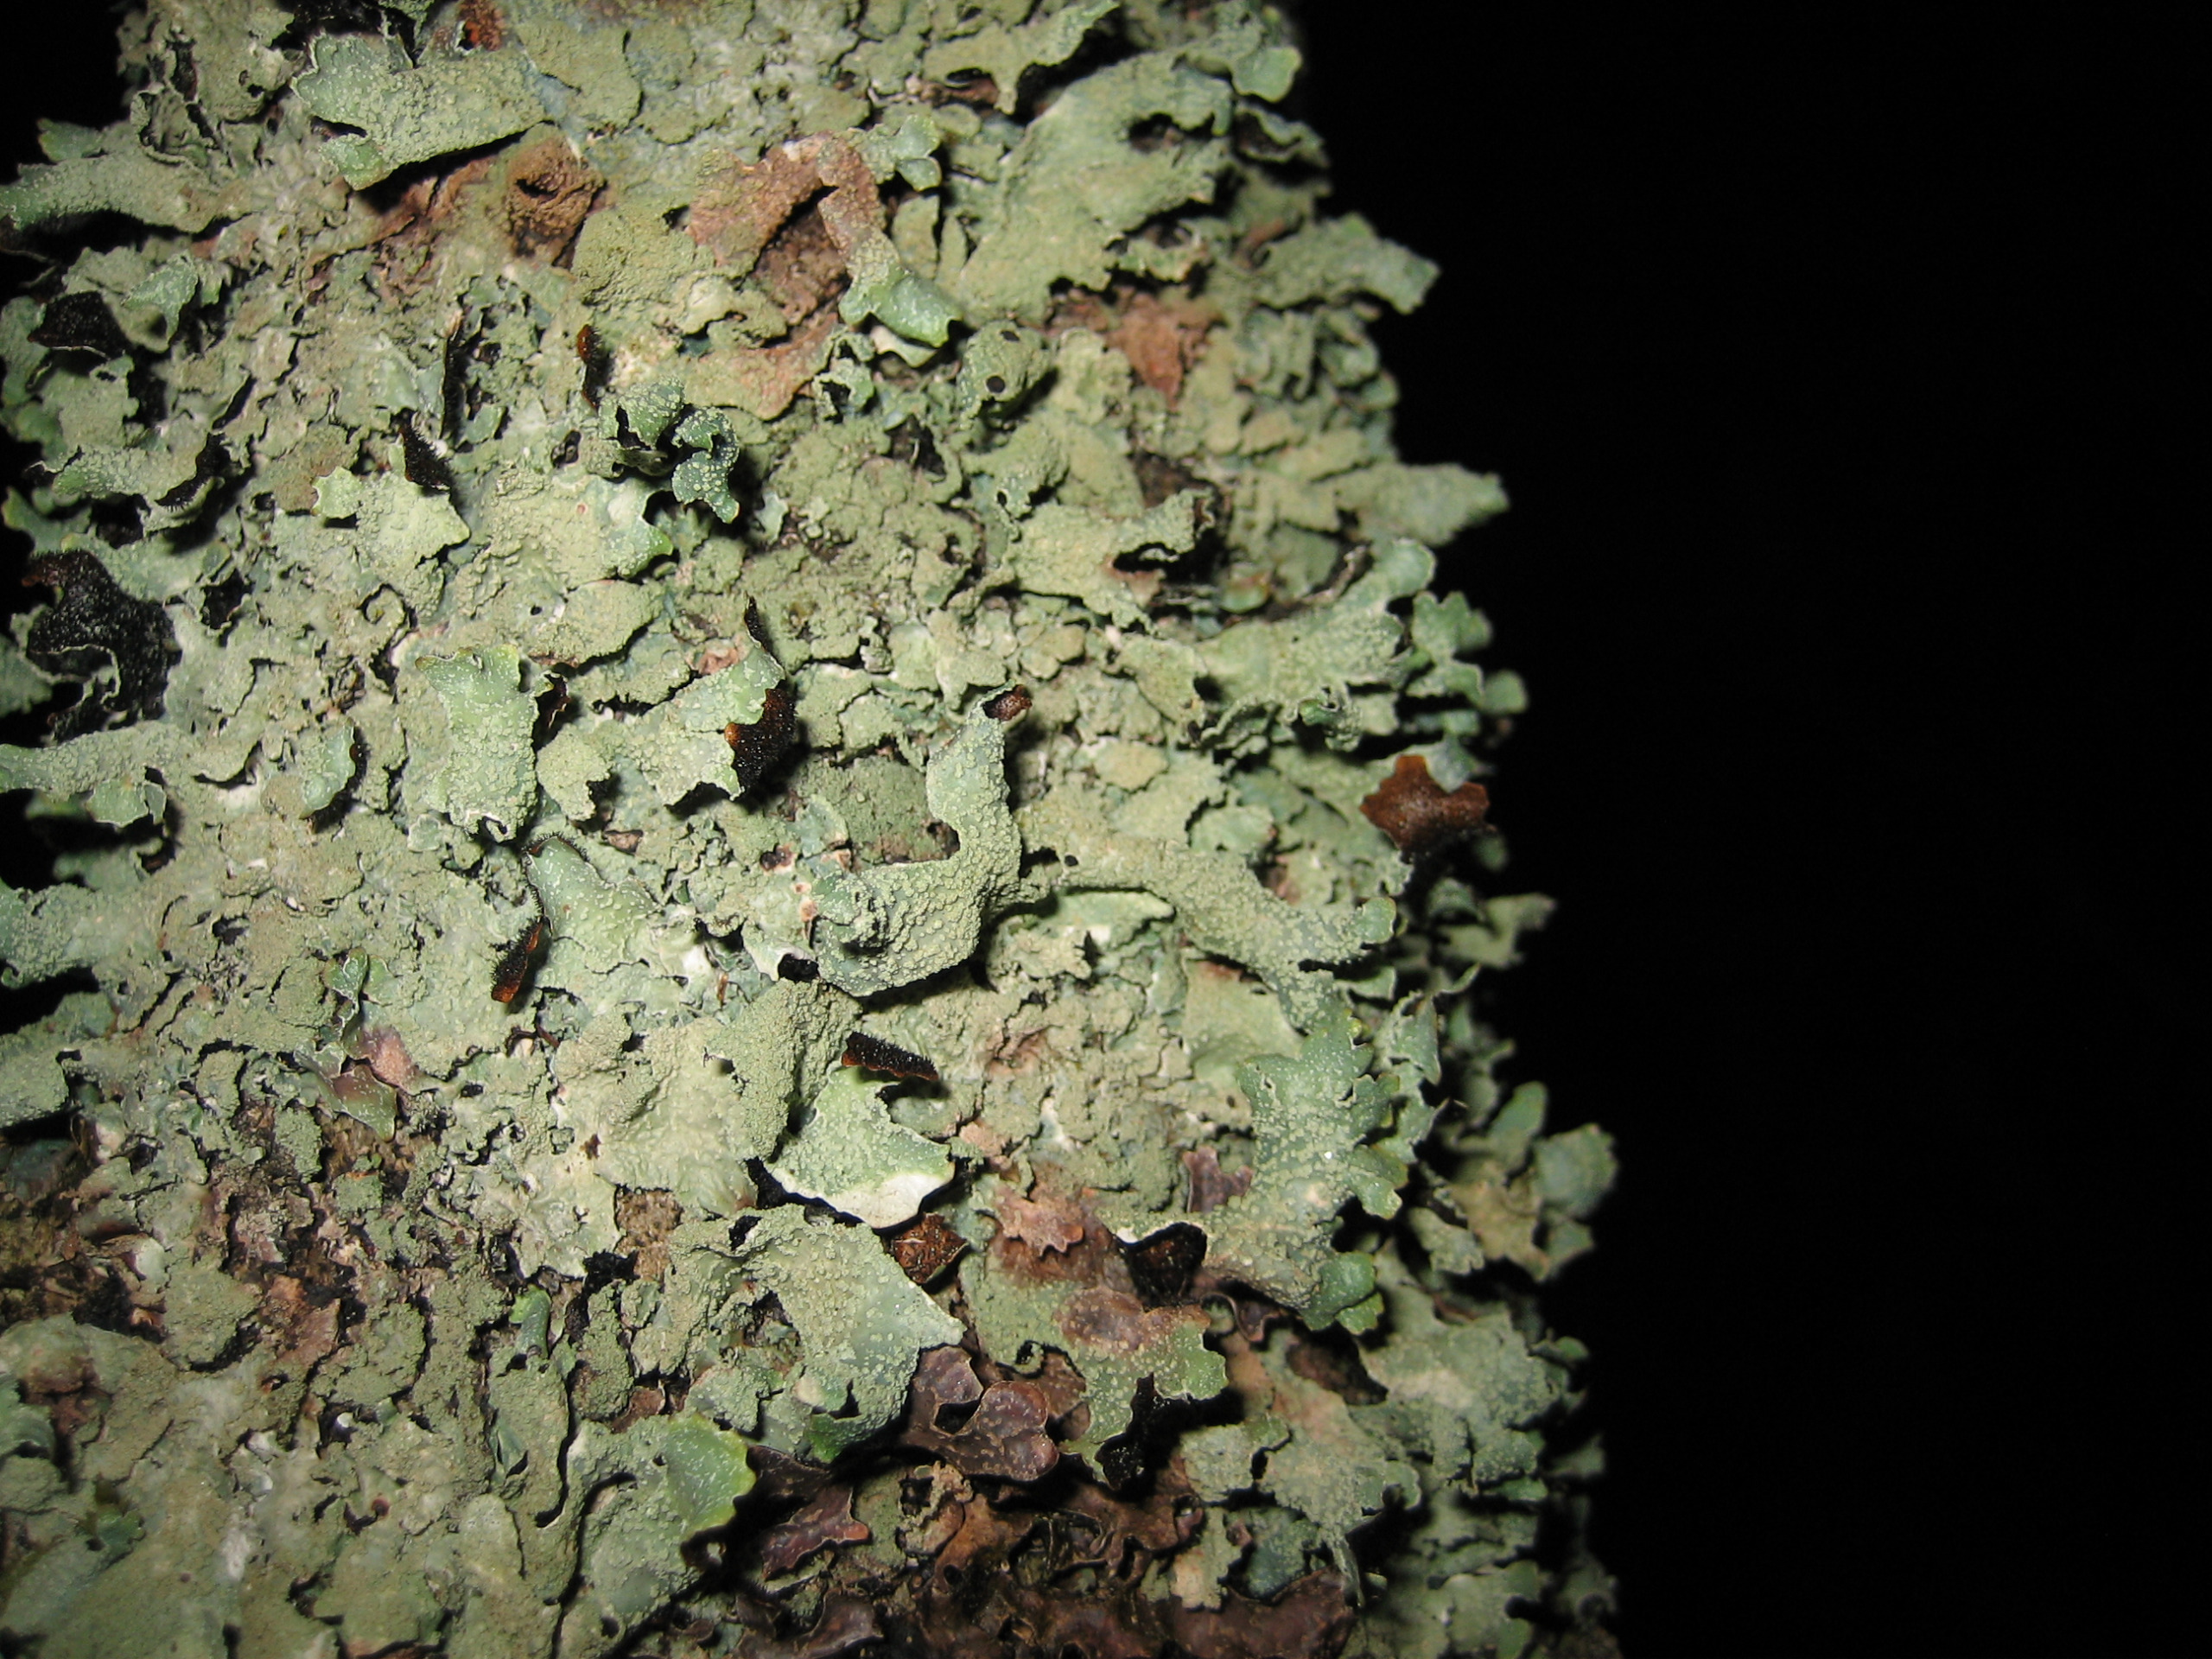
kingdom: Fungi
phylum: Ascomycota
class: Lecanoromycetes
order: Lecanorales
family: Parmeliaceae
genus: Parmelia
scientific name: Parmelia submontana
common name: Langlobet skållav
